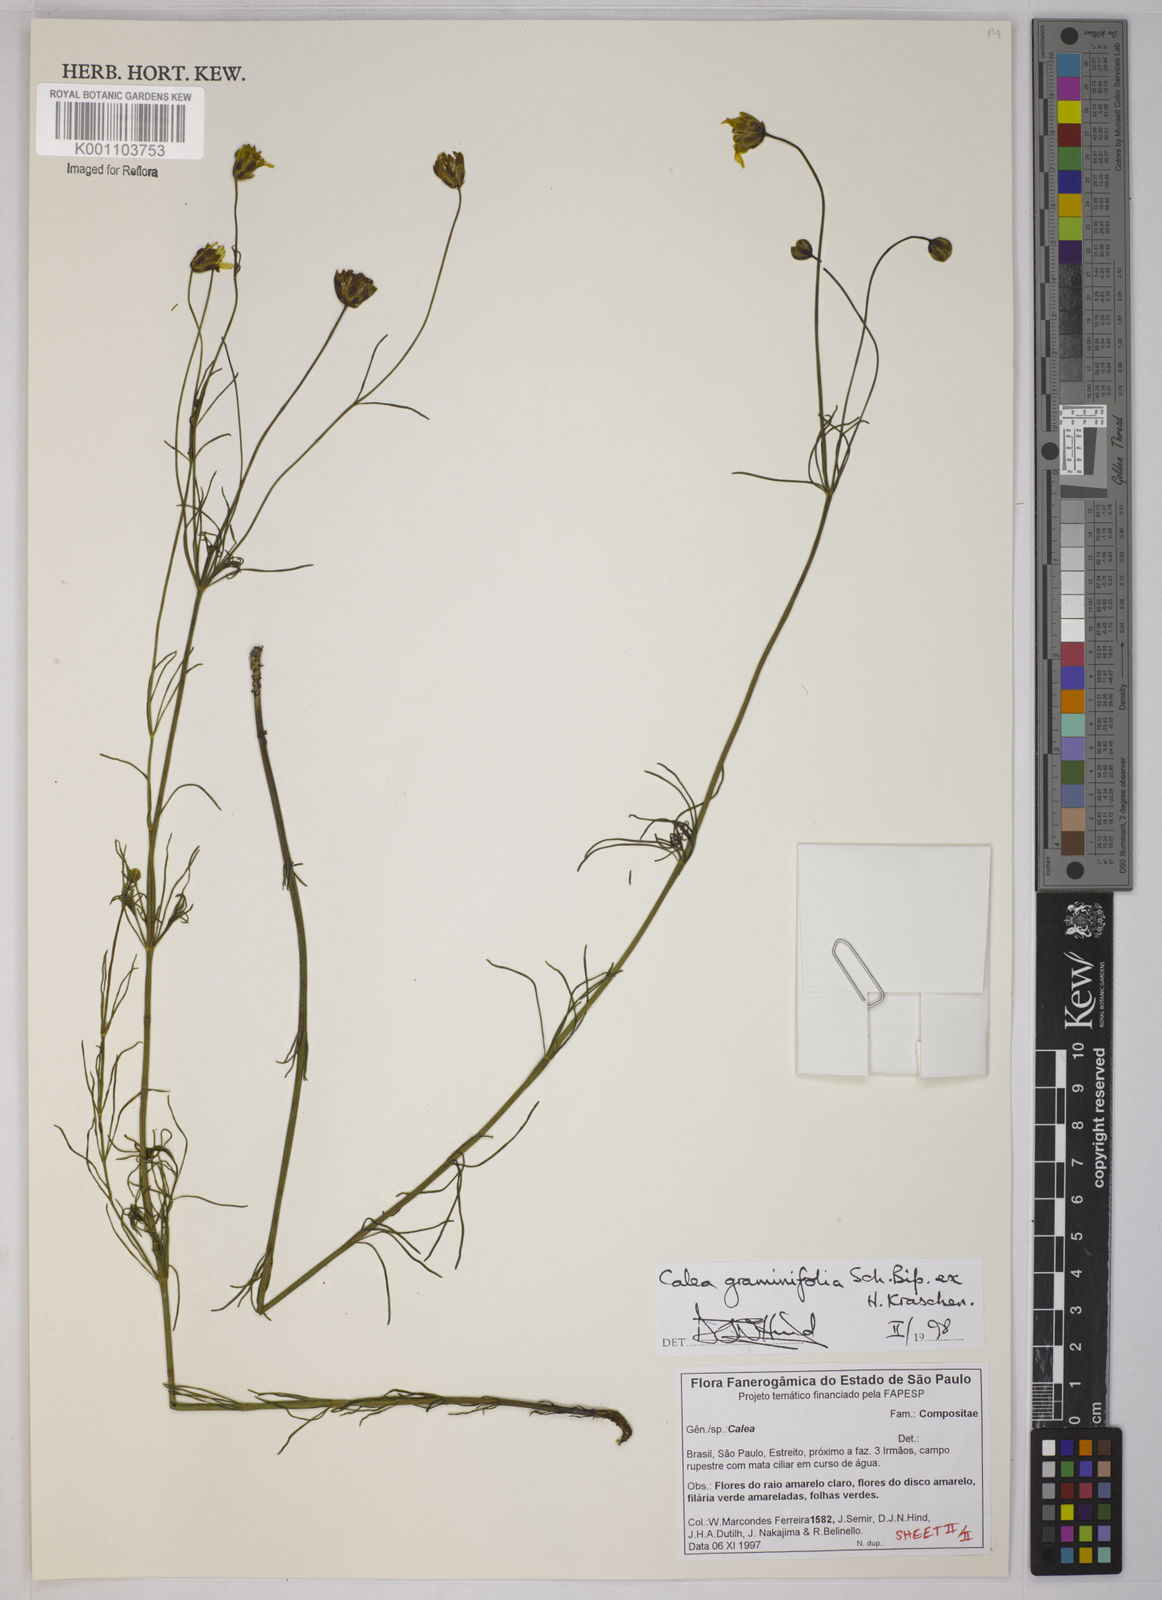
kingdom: Plantae
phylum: Tracheophyta
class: Magnoliopsida
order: Asterales
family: Asteraceae
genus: Calea
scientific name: Calea graminifolia
